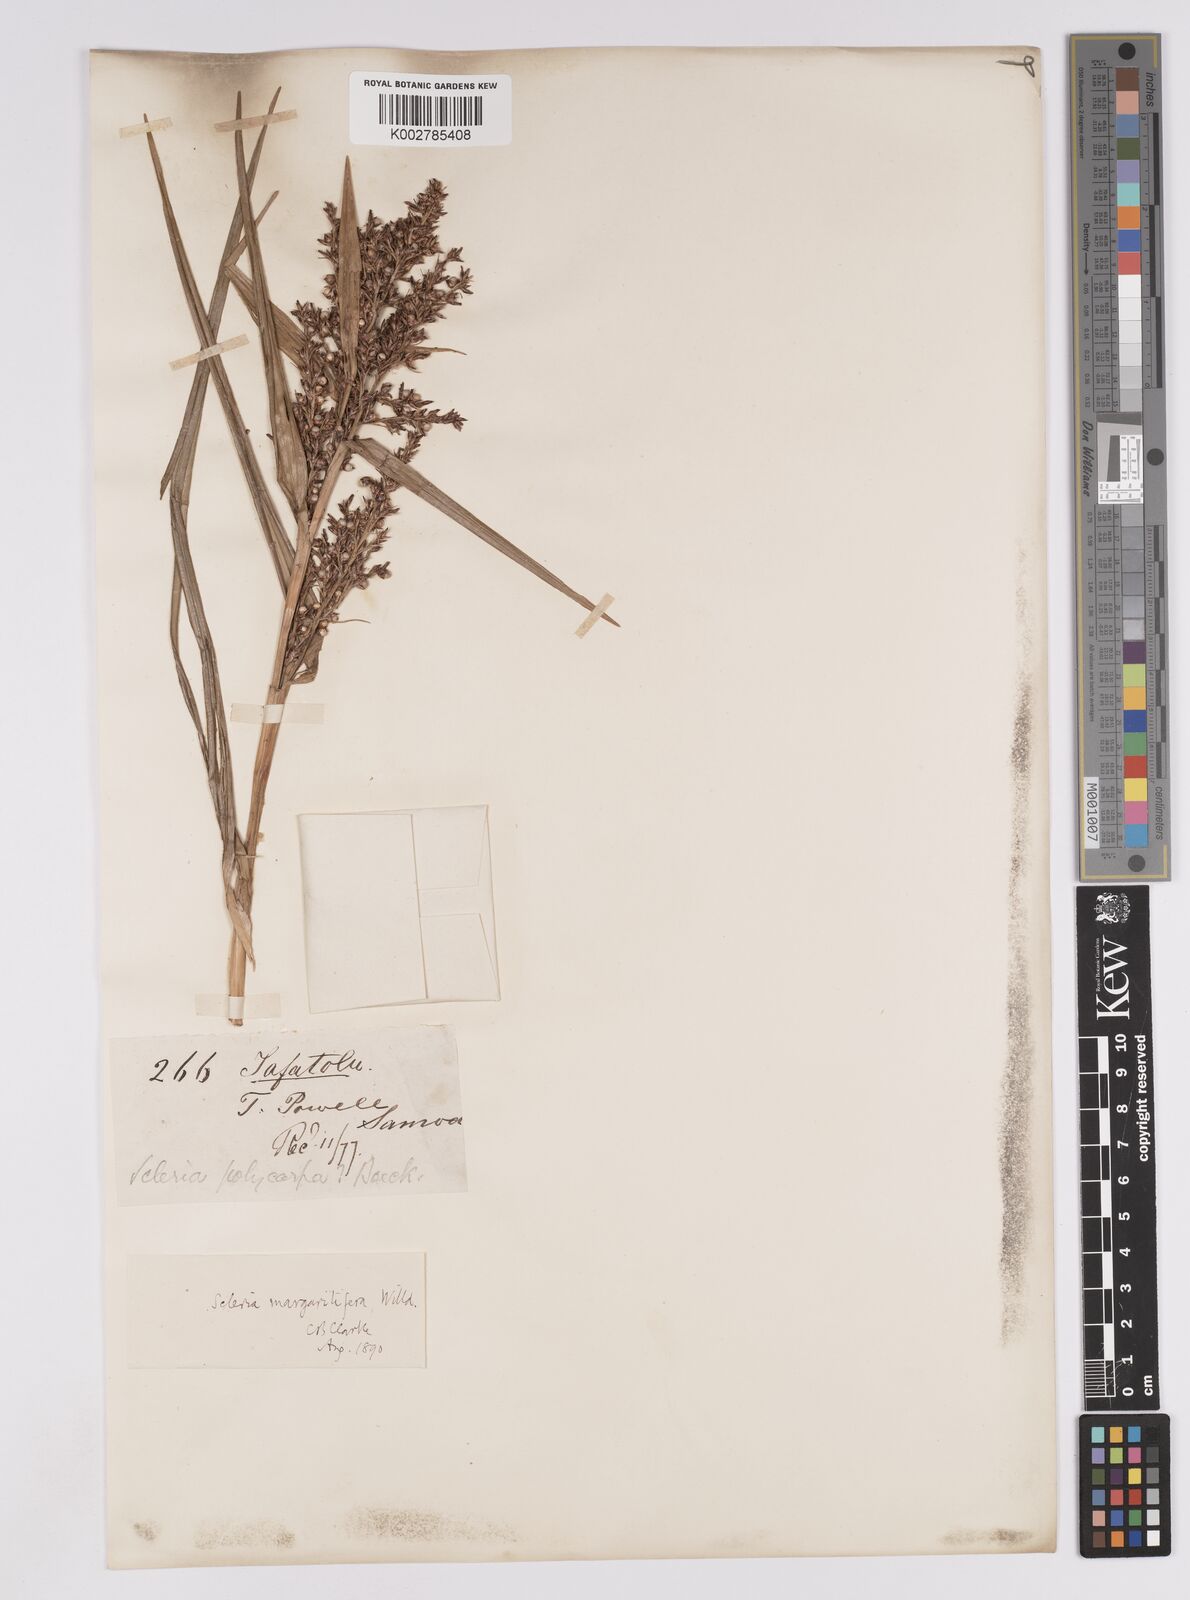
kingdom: Plantae
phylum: Tracheophyta
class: Liliopsida
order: Poales
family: Cyperaceae
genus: Scleria
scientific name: Scleria polycarpa
